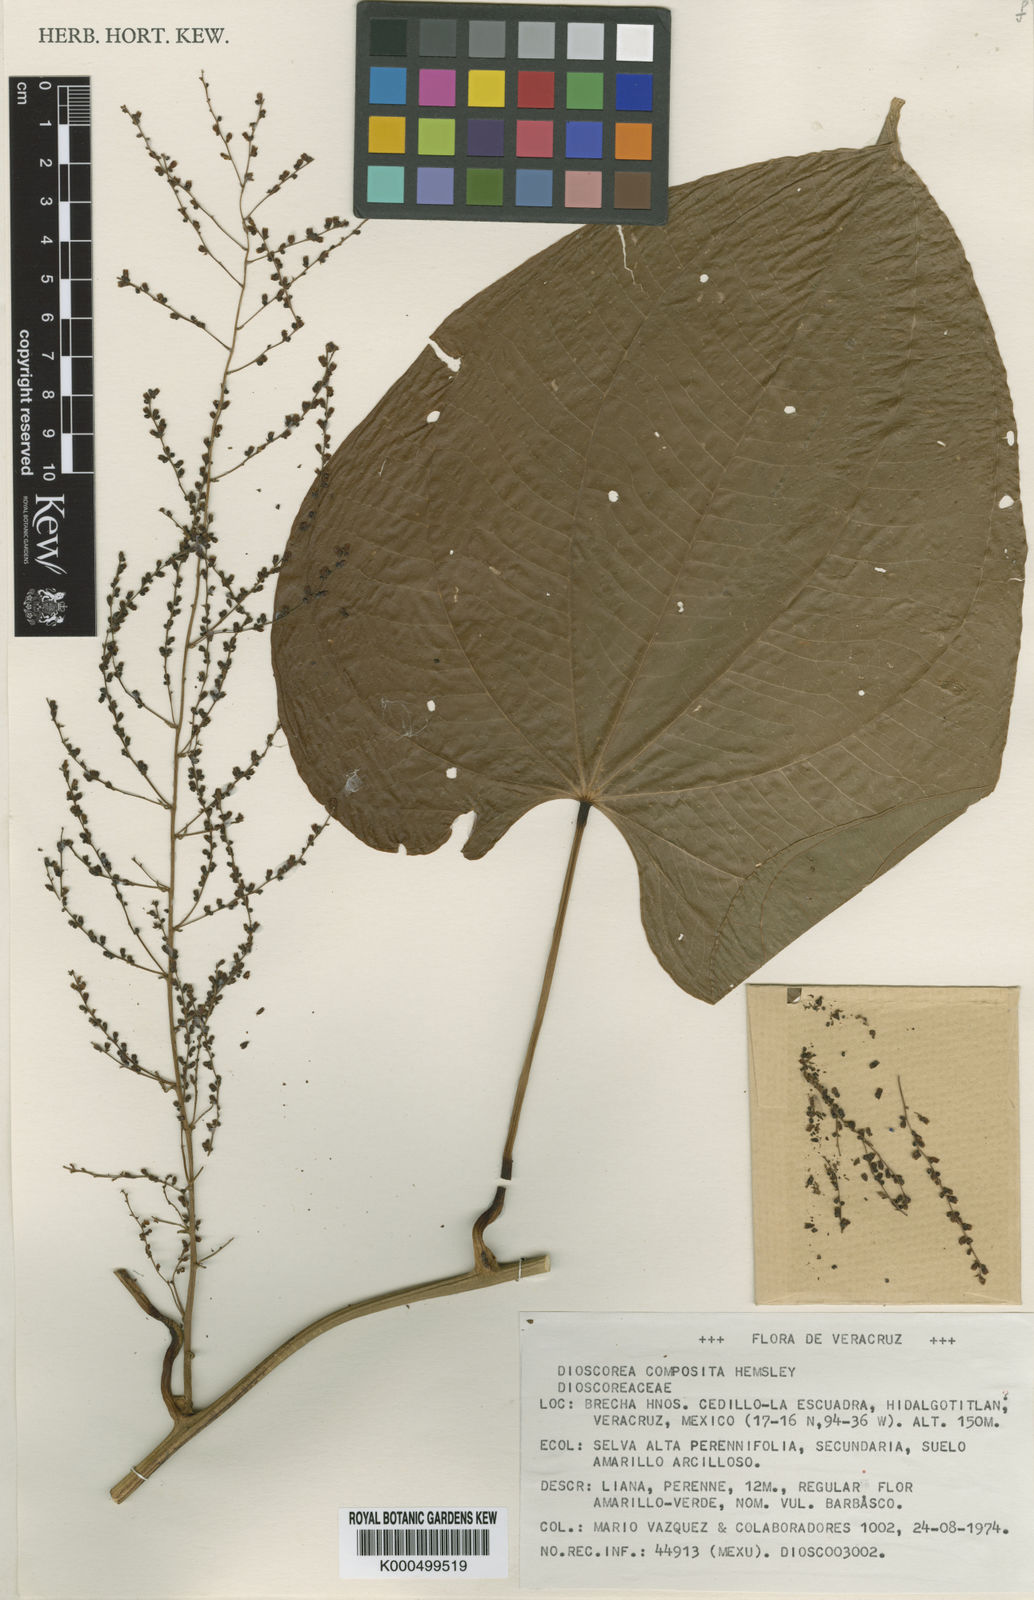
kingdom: Plantae
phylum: Tracheophyta
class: Liliopsida
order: Dioscoreales
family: Dioscoreaceae
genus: Dioscorea
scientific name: Dioscorea composita
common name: Barbasco
